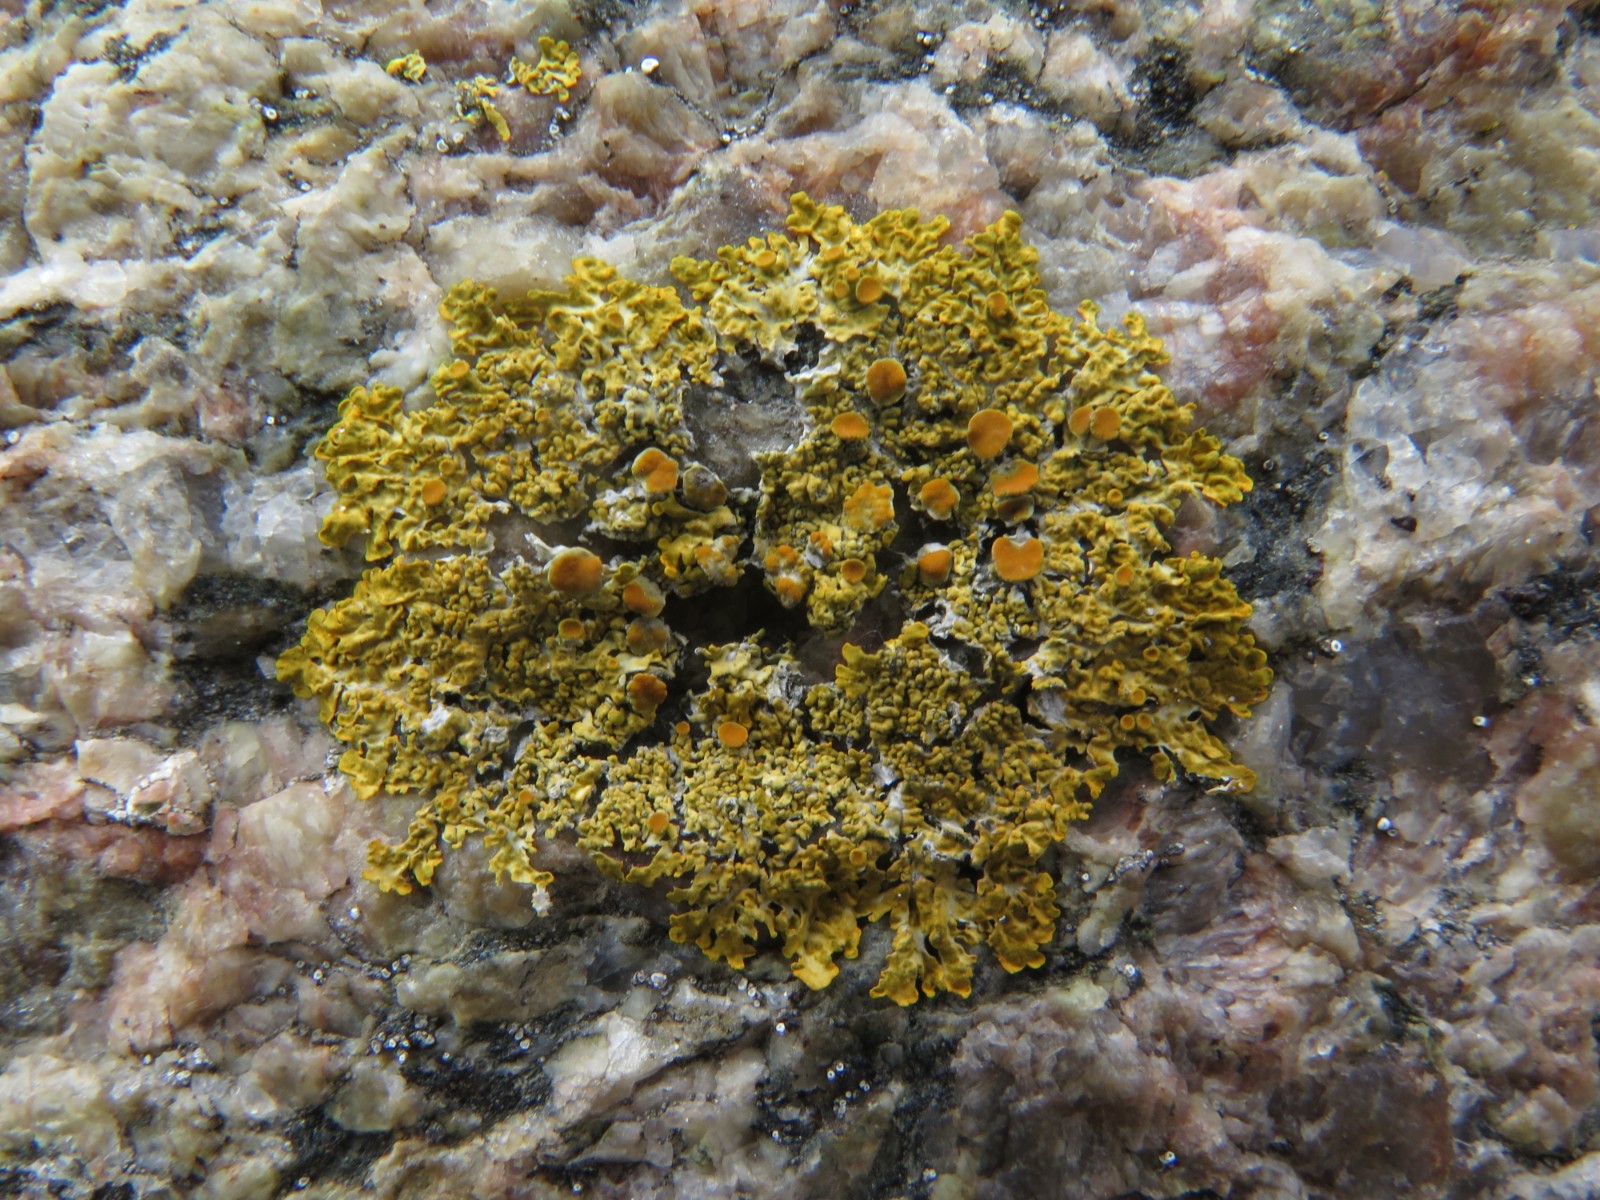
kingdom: Fungi
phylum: Ascomycota
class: Lecanoromycetes
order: Teloschistales
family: Teloschistaceae
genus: Xanthoria
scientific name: Xanthoria parietina
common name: almindelig væggelav
